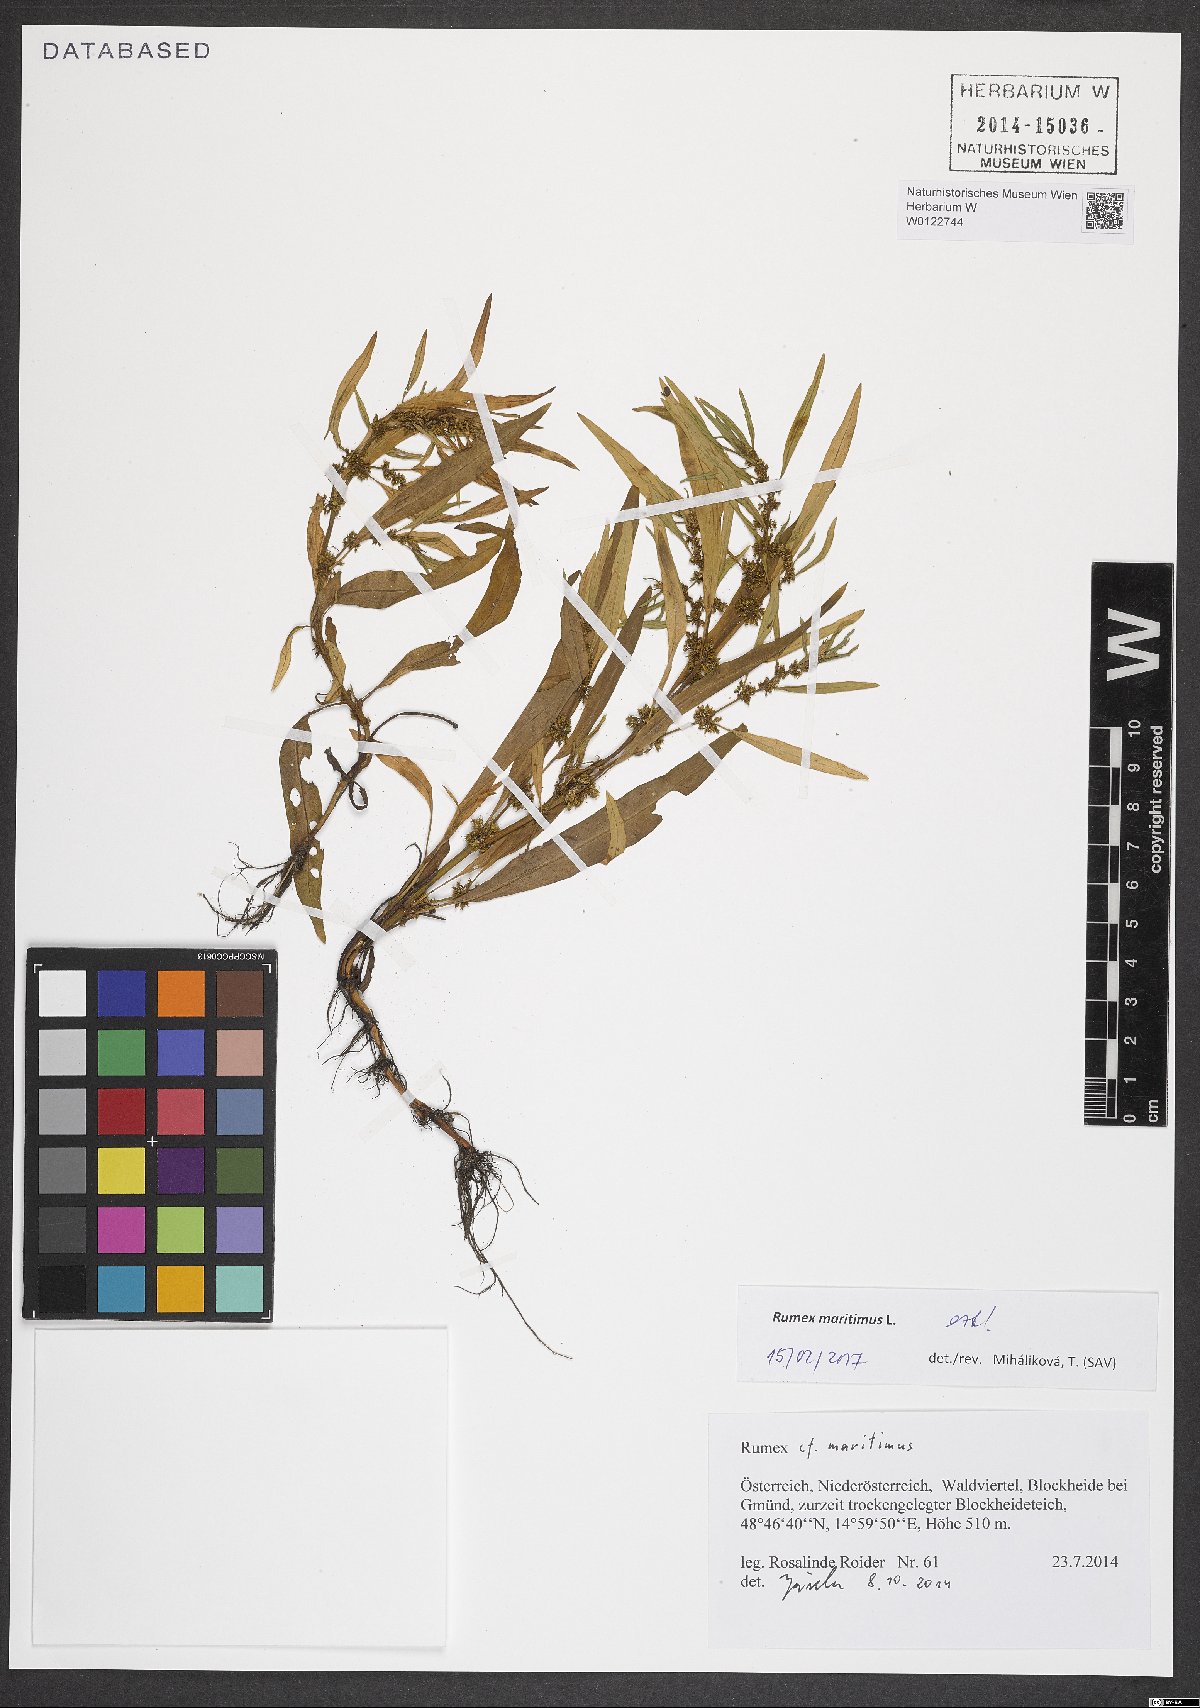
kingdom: Plantae
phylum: Tracheophyta
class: Magnoliopsida
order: Caryophyllales
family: Polygonaceae
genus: Rumex
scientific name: Rumex maritimus
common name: Golden dock
